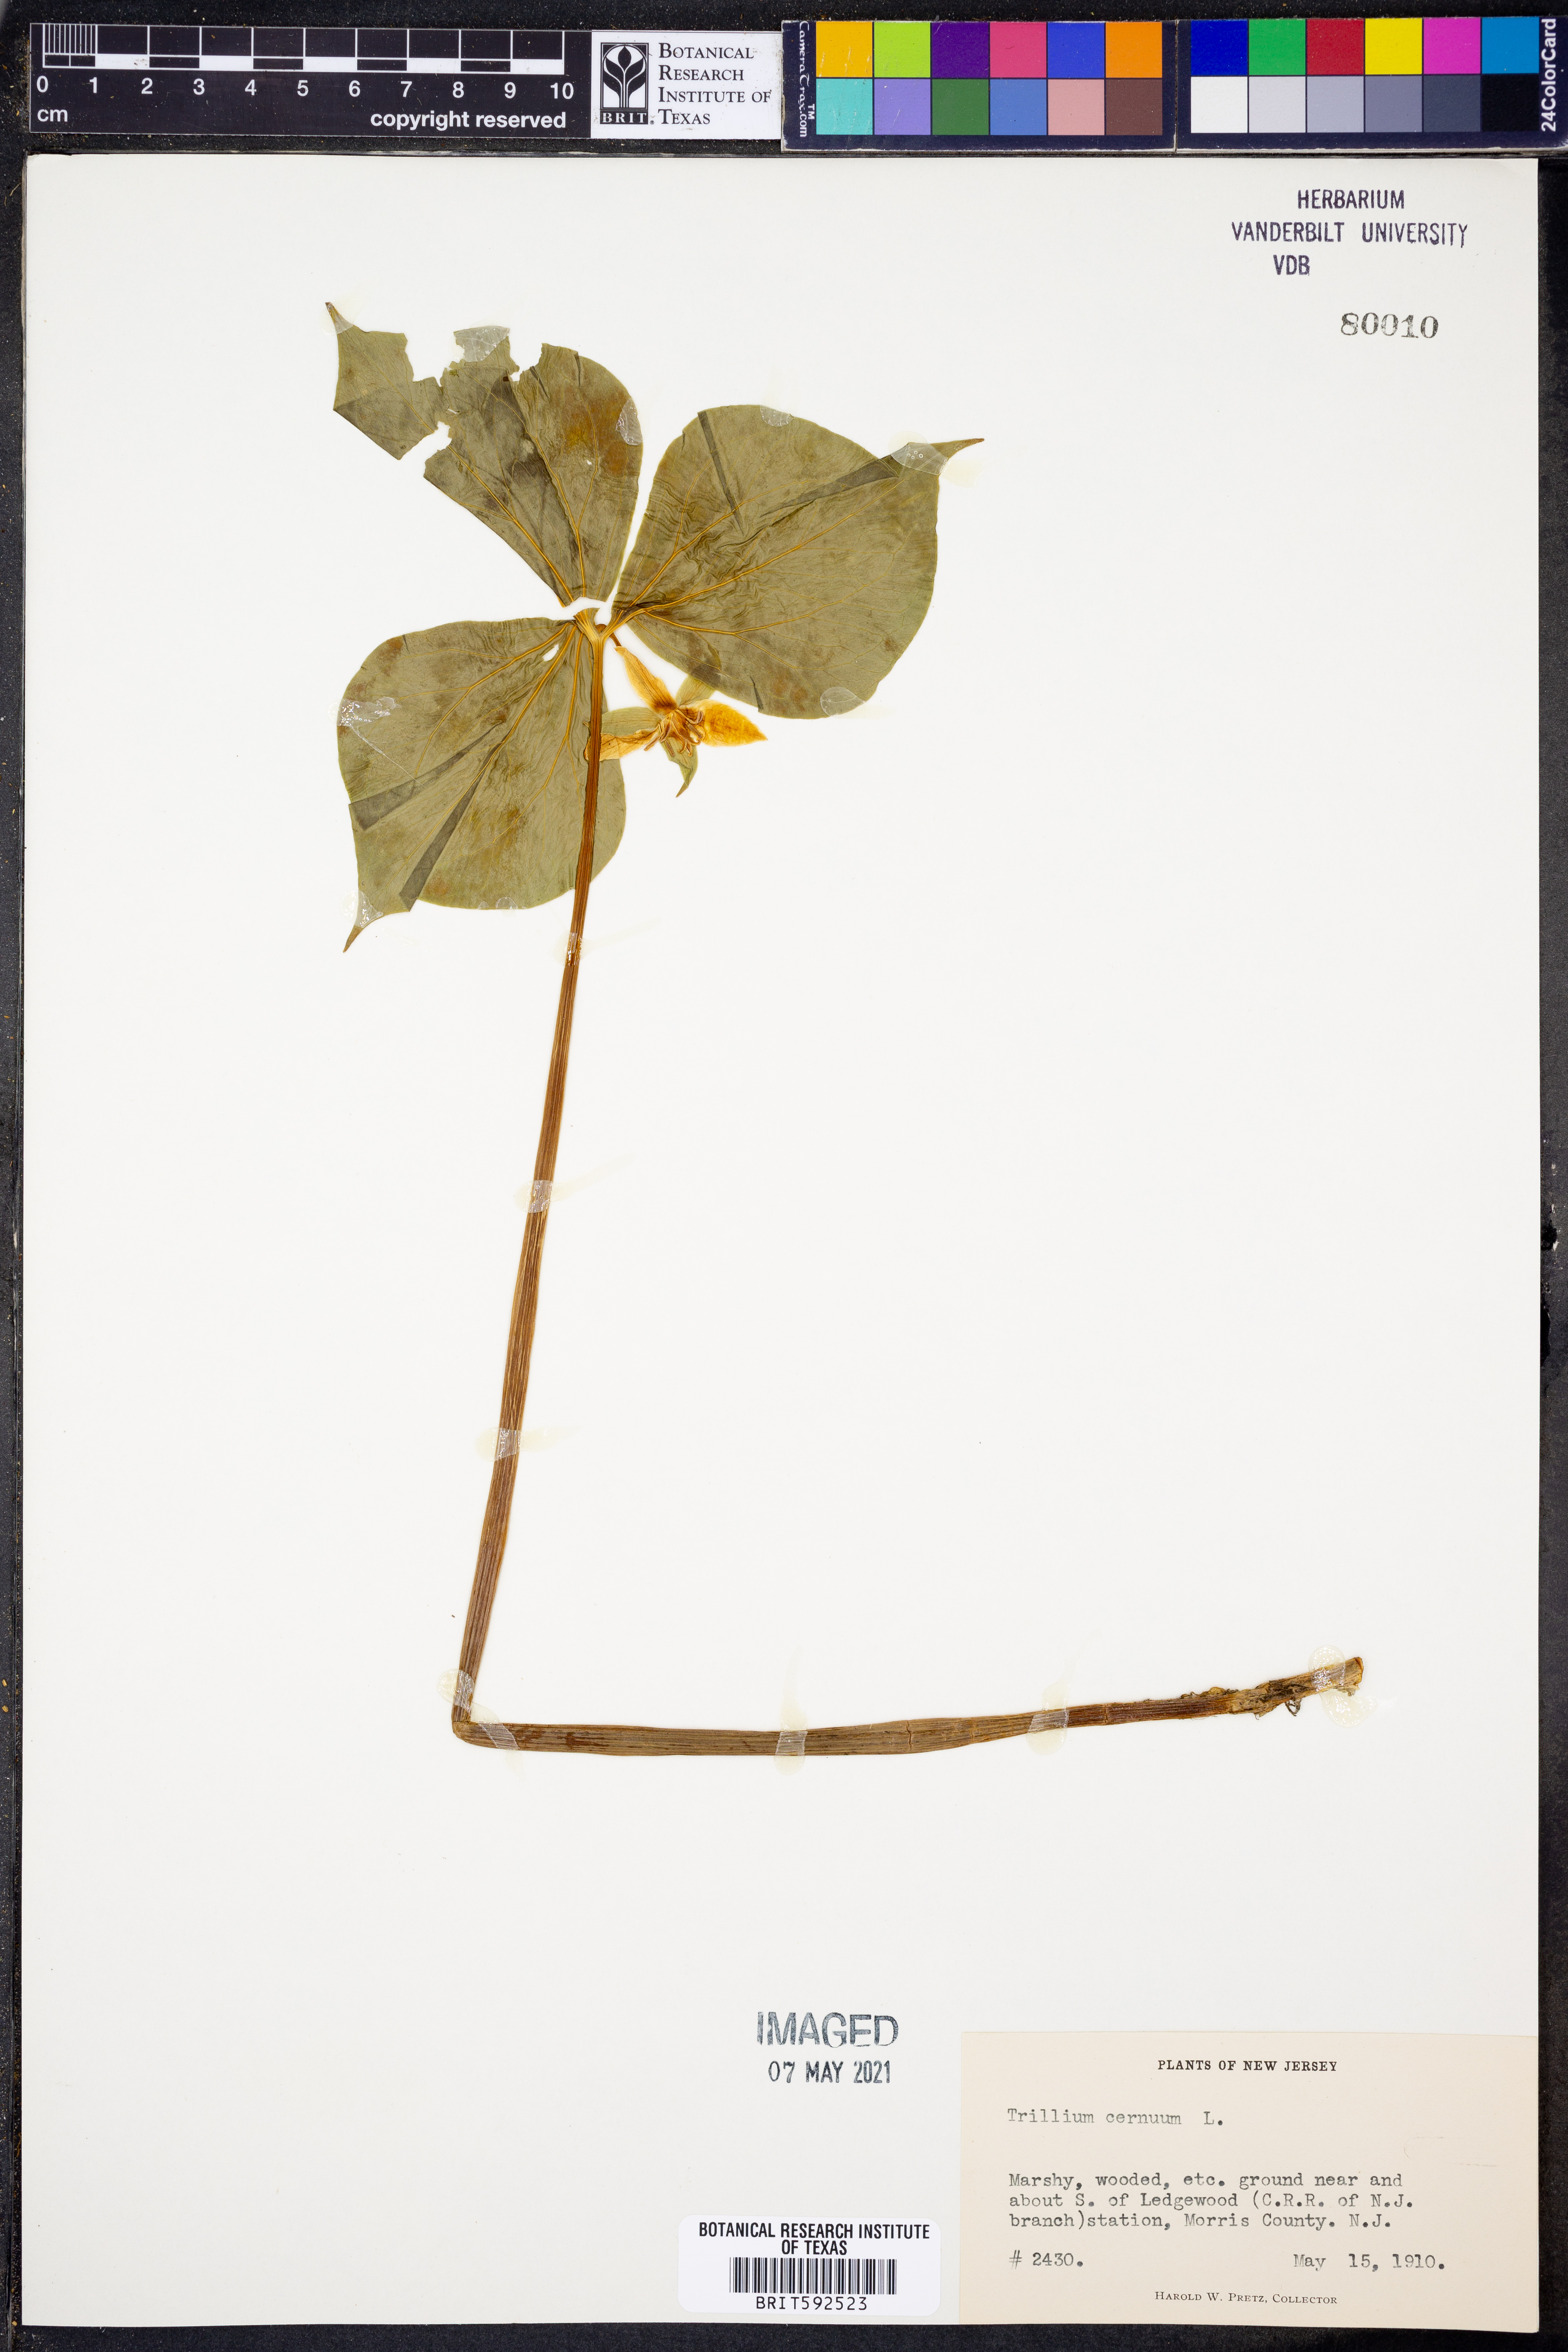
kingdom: Plantae
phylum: Tracheophyta
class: Liliopsida
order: Liliales
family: Melanthiaceae
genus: Trillium
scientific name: Trillium cernuum
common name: Nodding trillium
